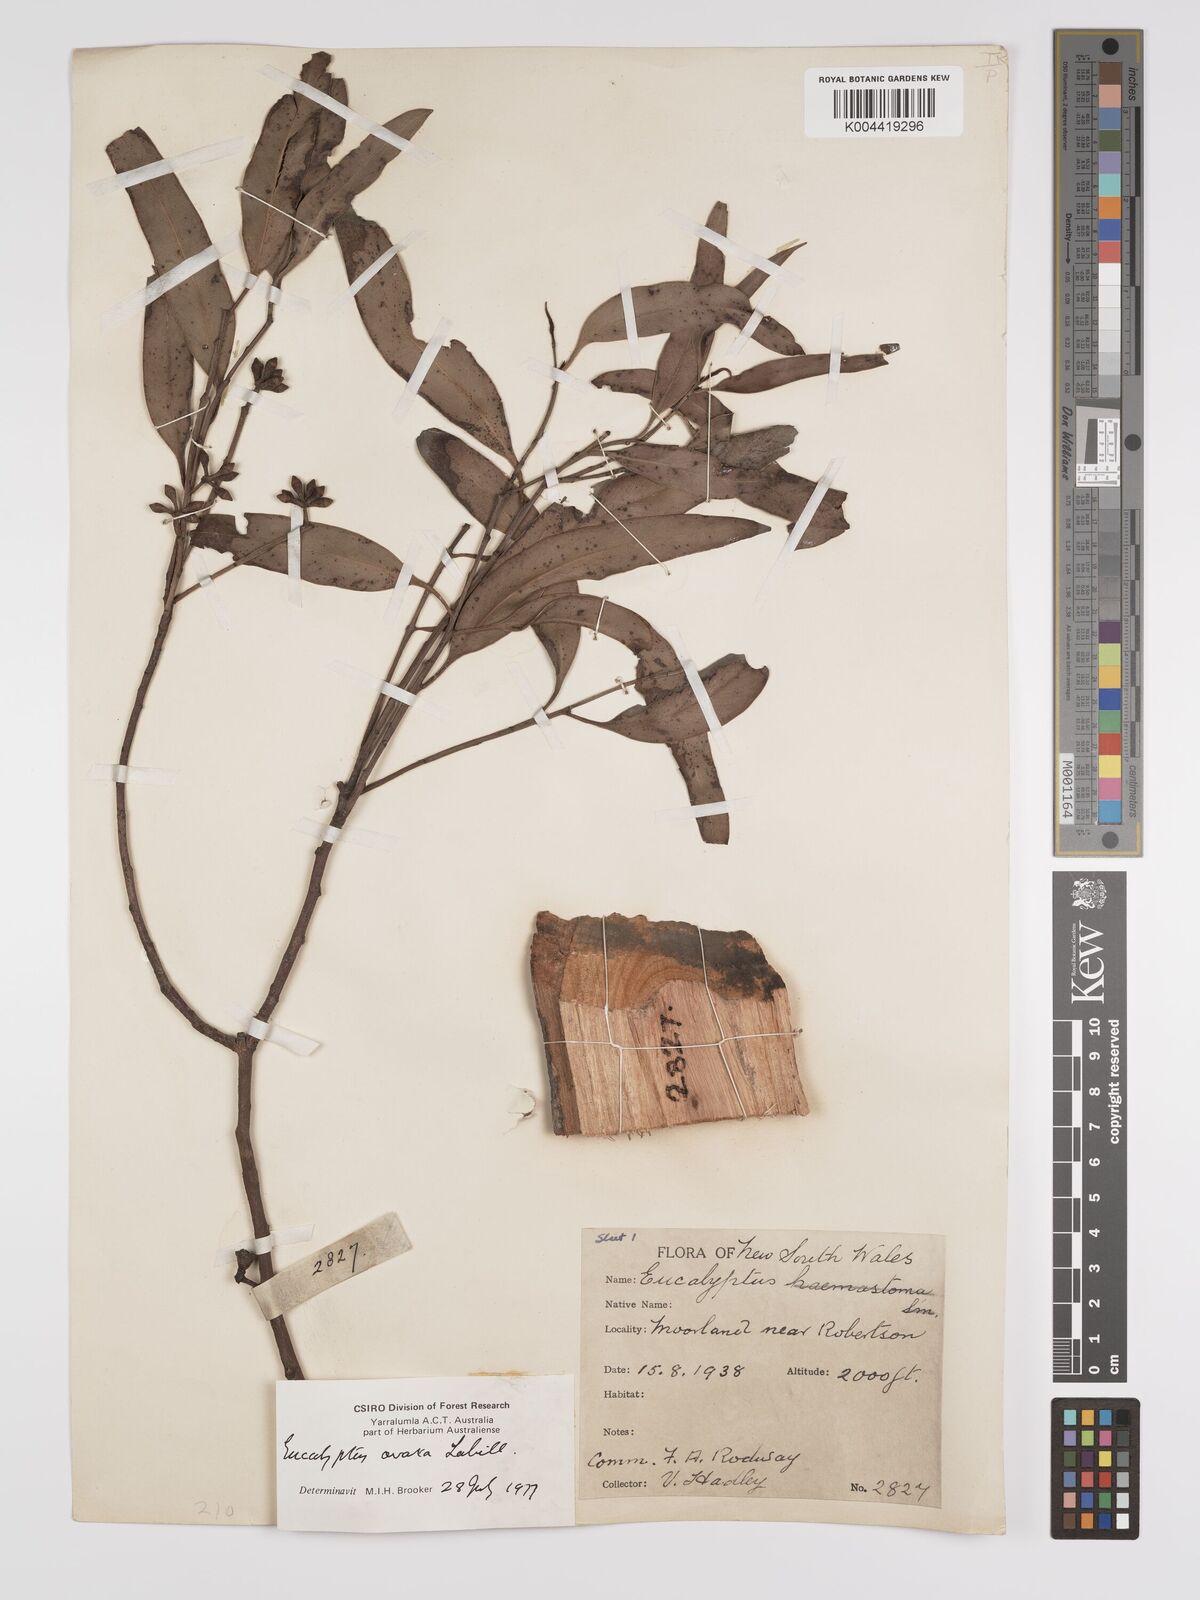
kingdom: Plantae
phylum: Tracheophyta
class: Magnoliopsida
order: Myrtales
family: Myrtaceae
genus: Eucalyptus
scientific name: Eucalyptus ovata
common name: Black-gum
